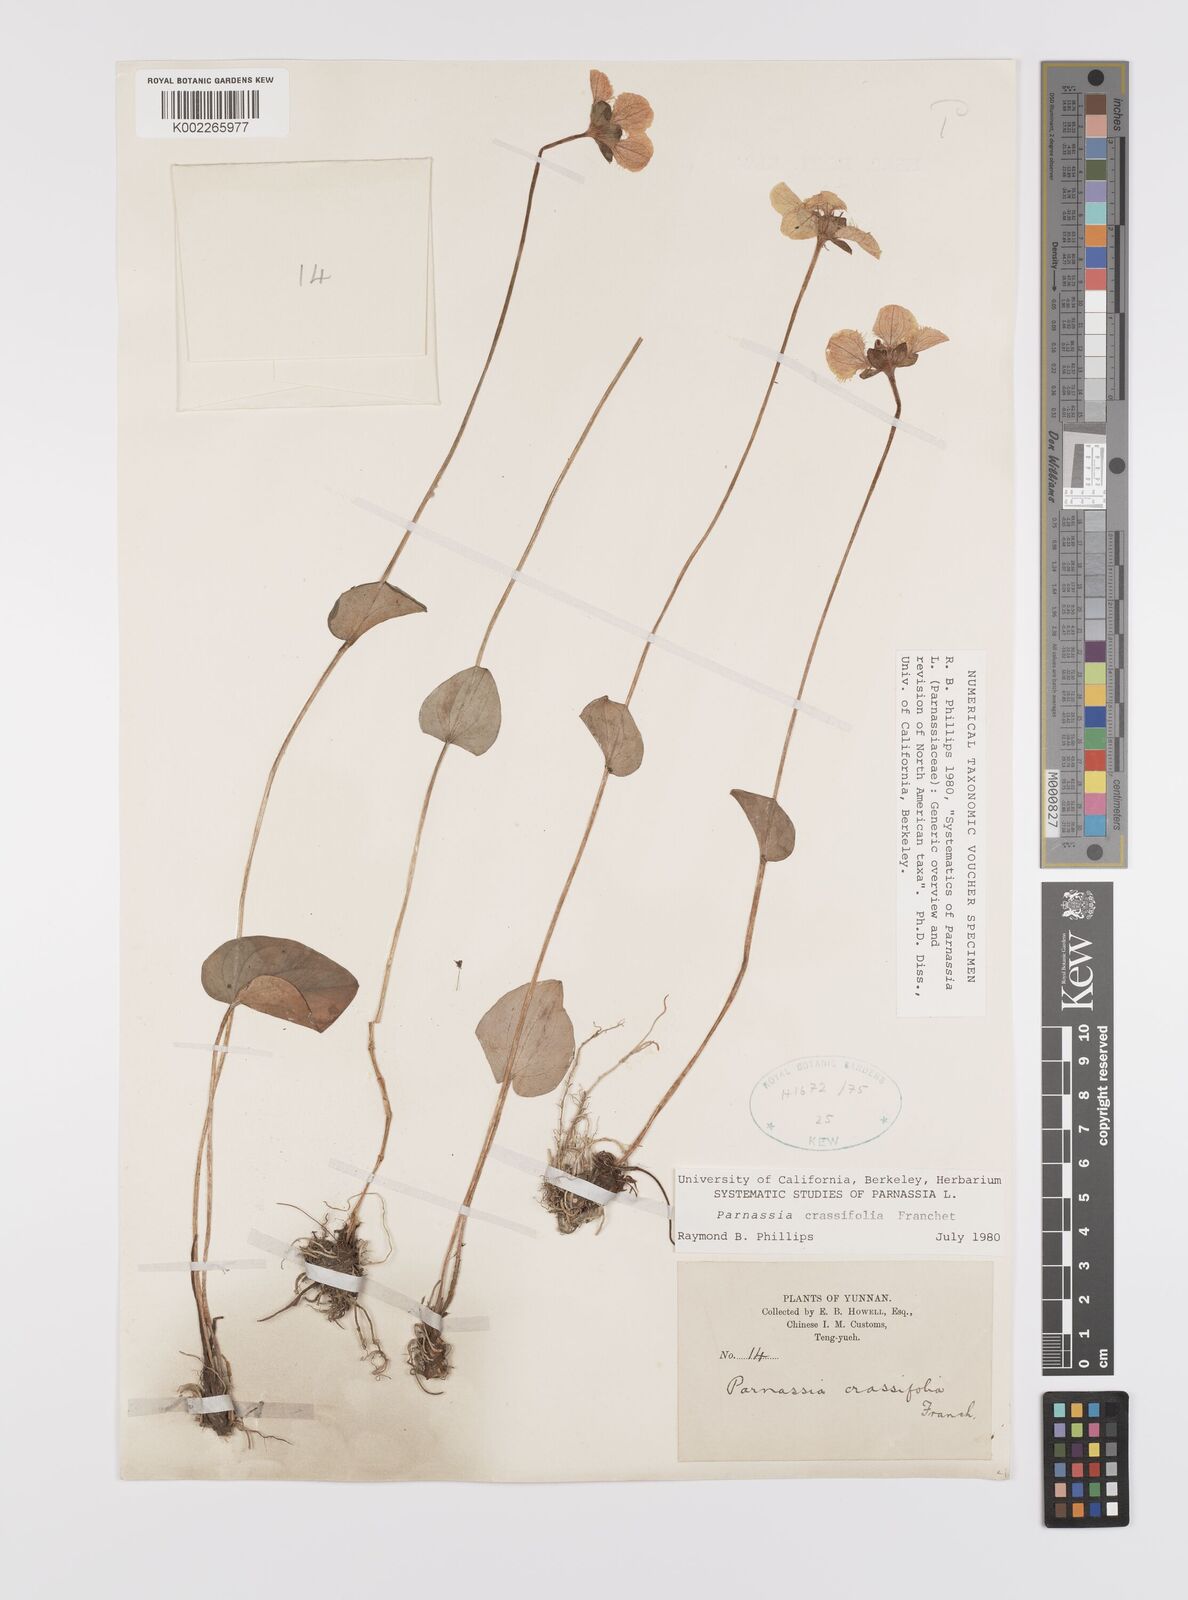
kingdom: Plantae
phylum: Tracheophyta
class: Magnoliopsida
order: Celastrales
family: Parnassiaceae
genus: Parnassia
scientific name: Parnassia crassifolia
